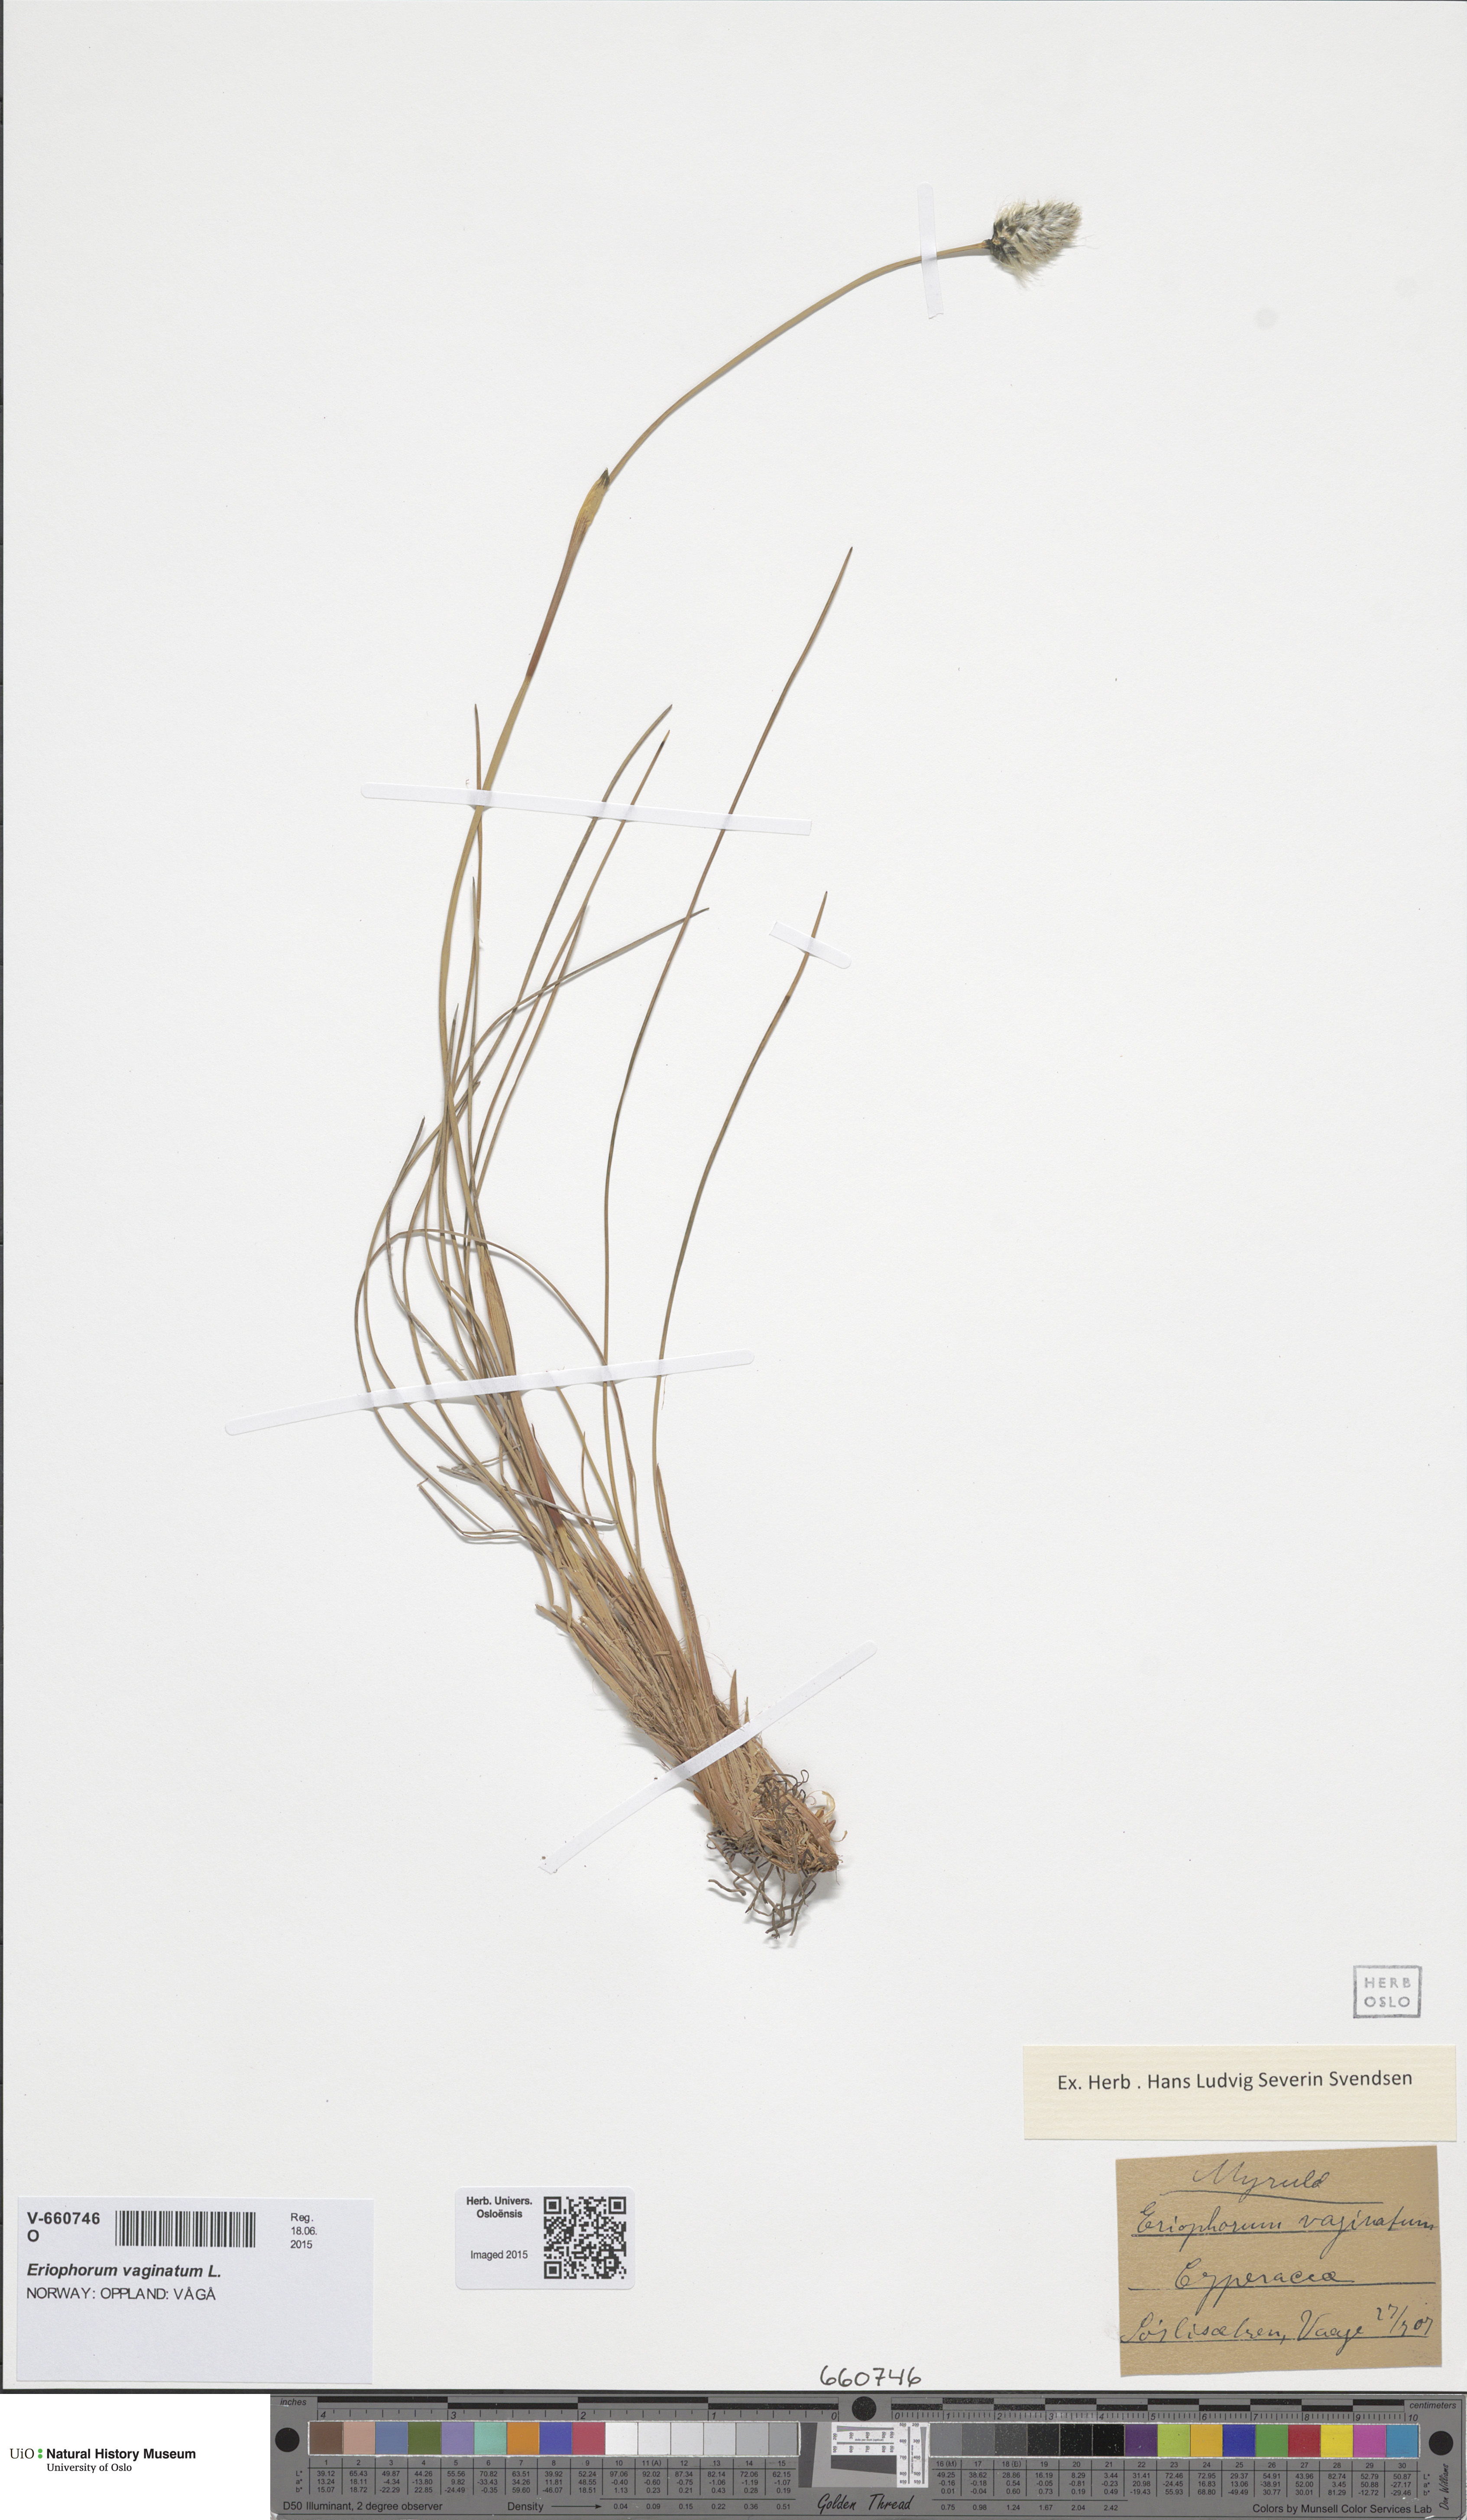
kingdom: Plantae
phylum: Tracheophyta
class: Liliopsida
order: Poales
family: Cyperaceae
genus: Eriophorum
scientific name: Eriophorum vaginatum
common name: Hare's-tail cottongrass
